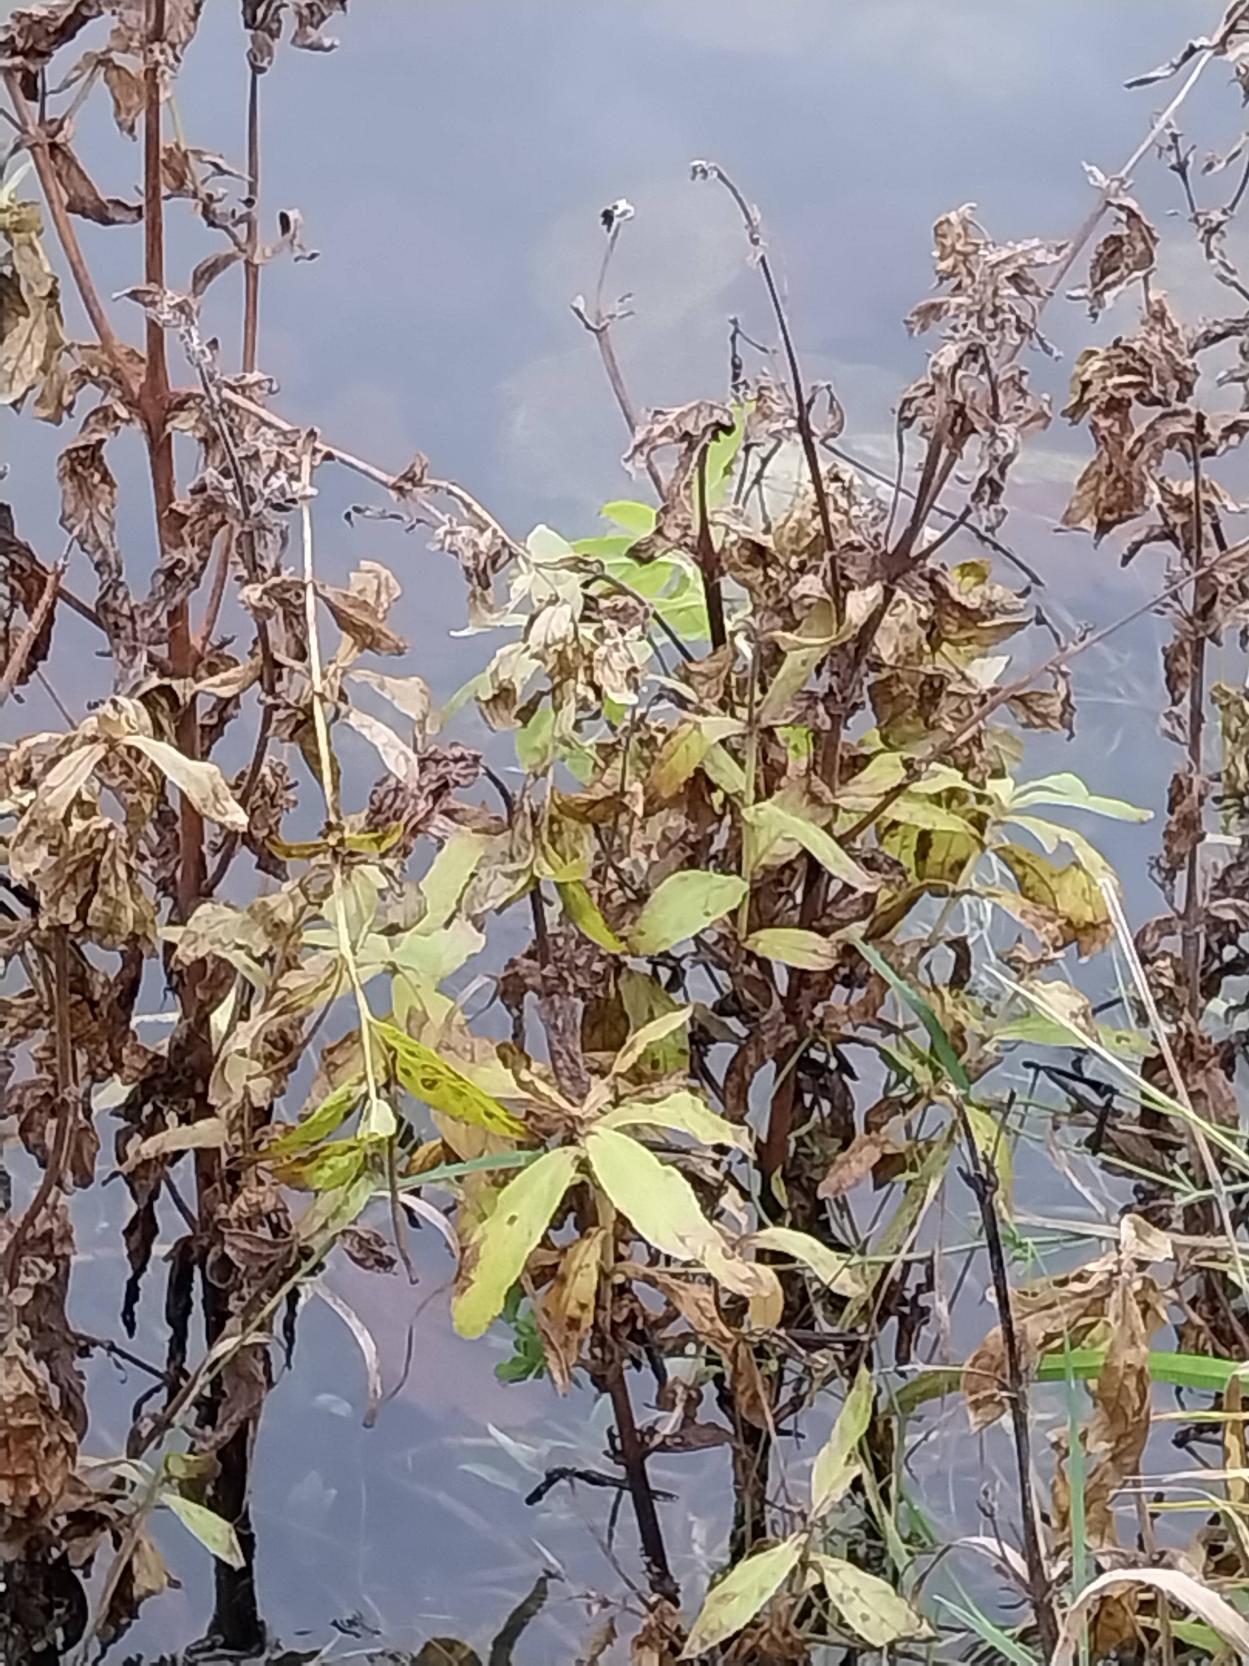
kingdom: Plantae
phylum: Tracheophyta
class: Magnoliopsida
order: Myrtales
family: Onagraceae
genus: Epilobium
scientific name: Epilobium hirsutum
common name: Lådden dueurt
